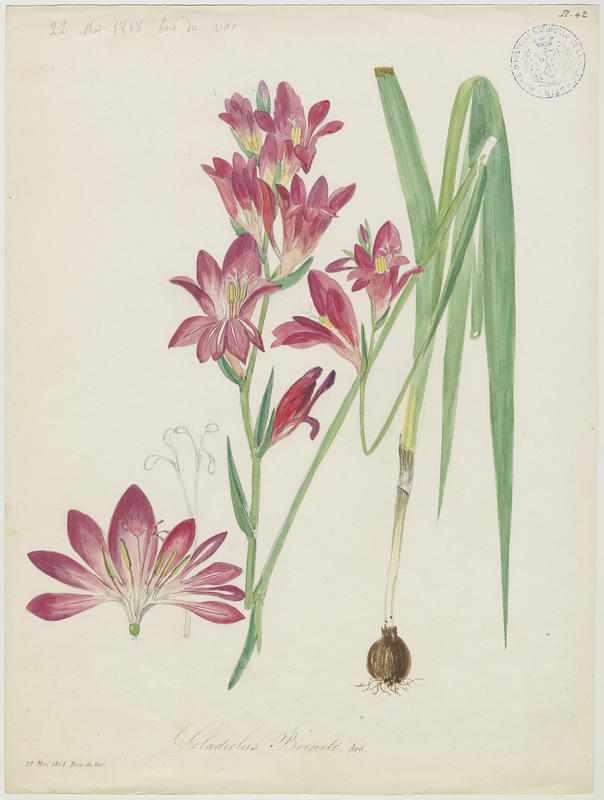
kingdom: Plantae
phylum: Tracheophyta
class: Liliopsida
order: Asparagales
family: Iridaceae
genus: Gladiolus
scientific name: Gladiolus byzantinus
